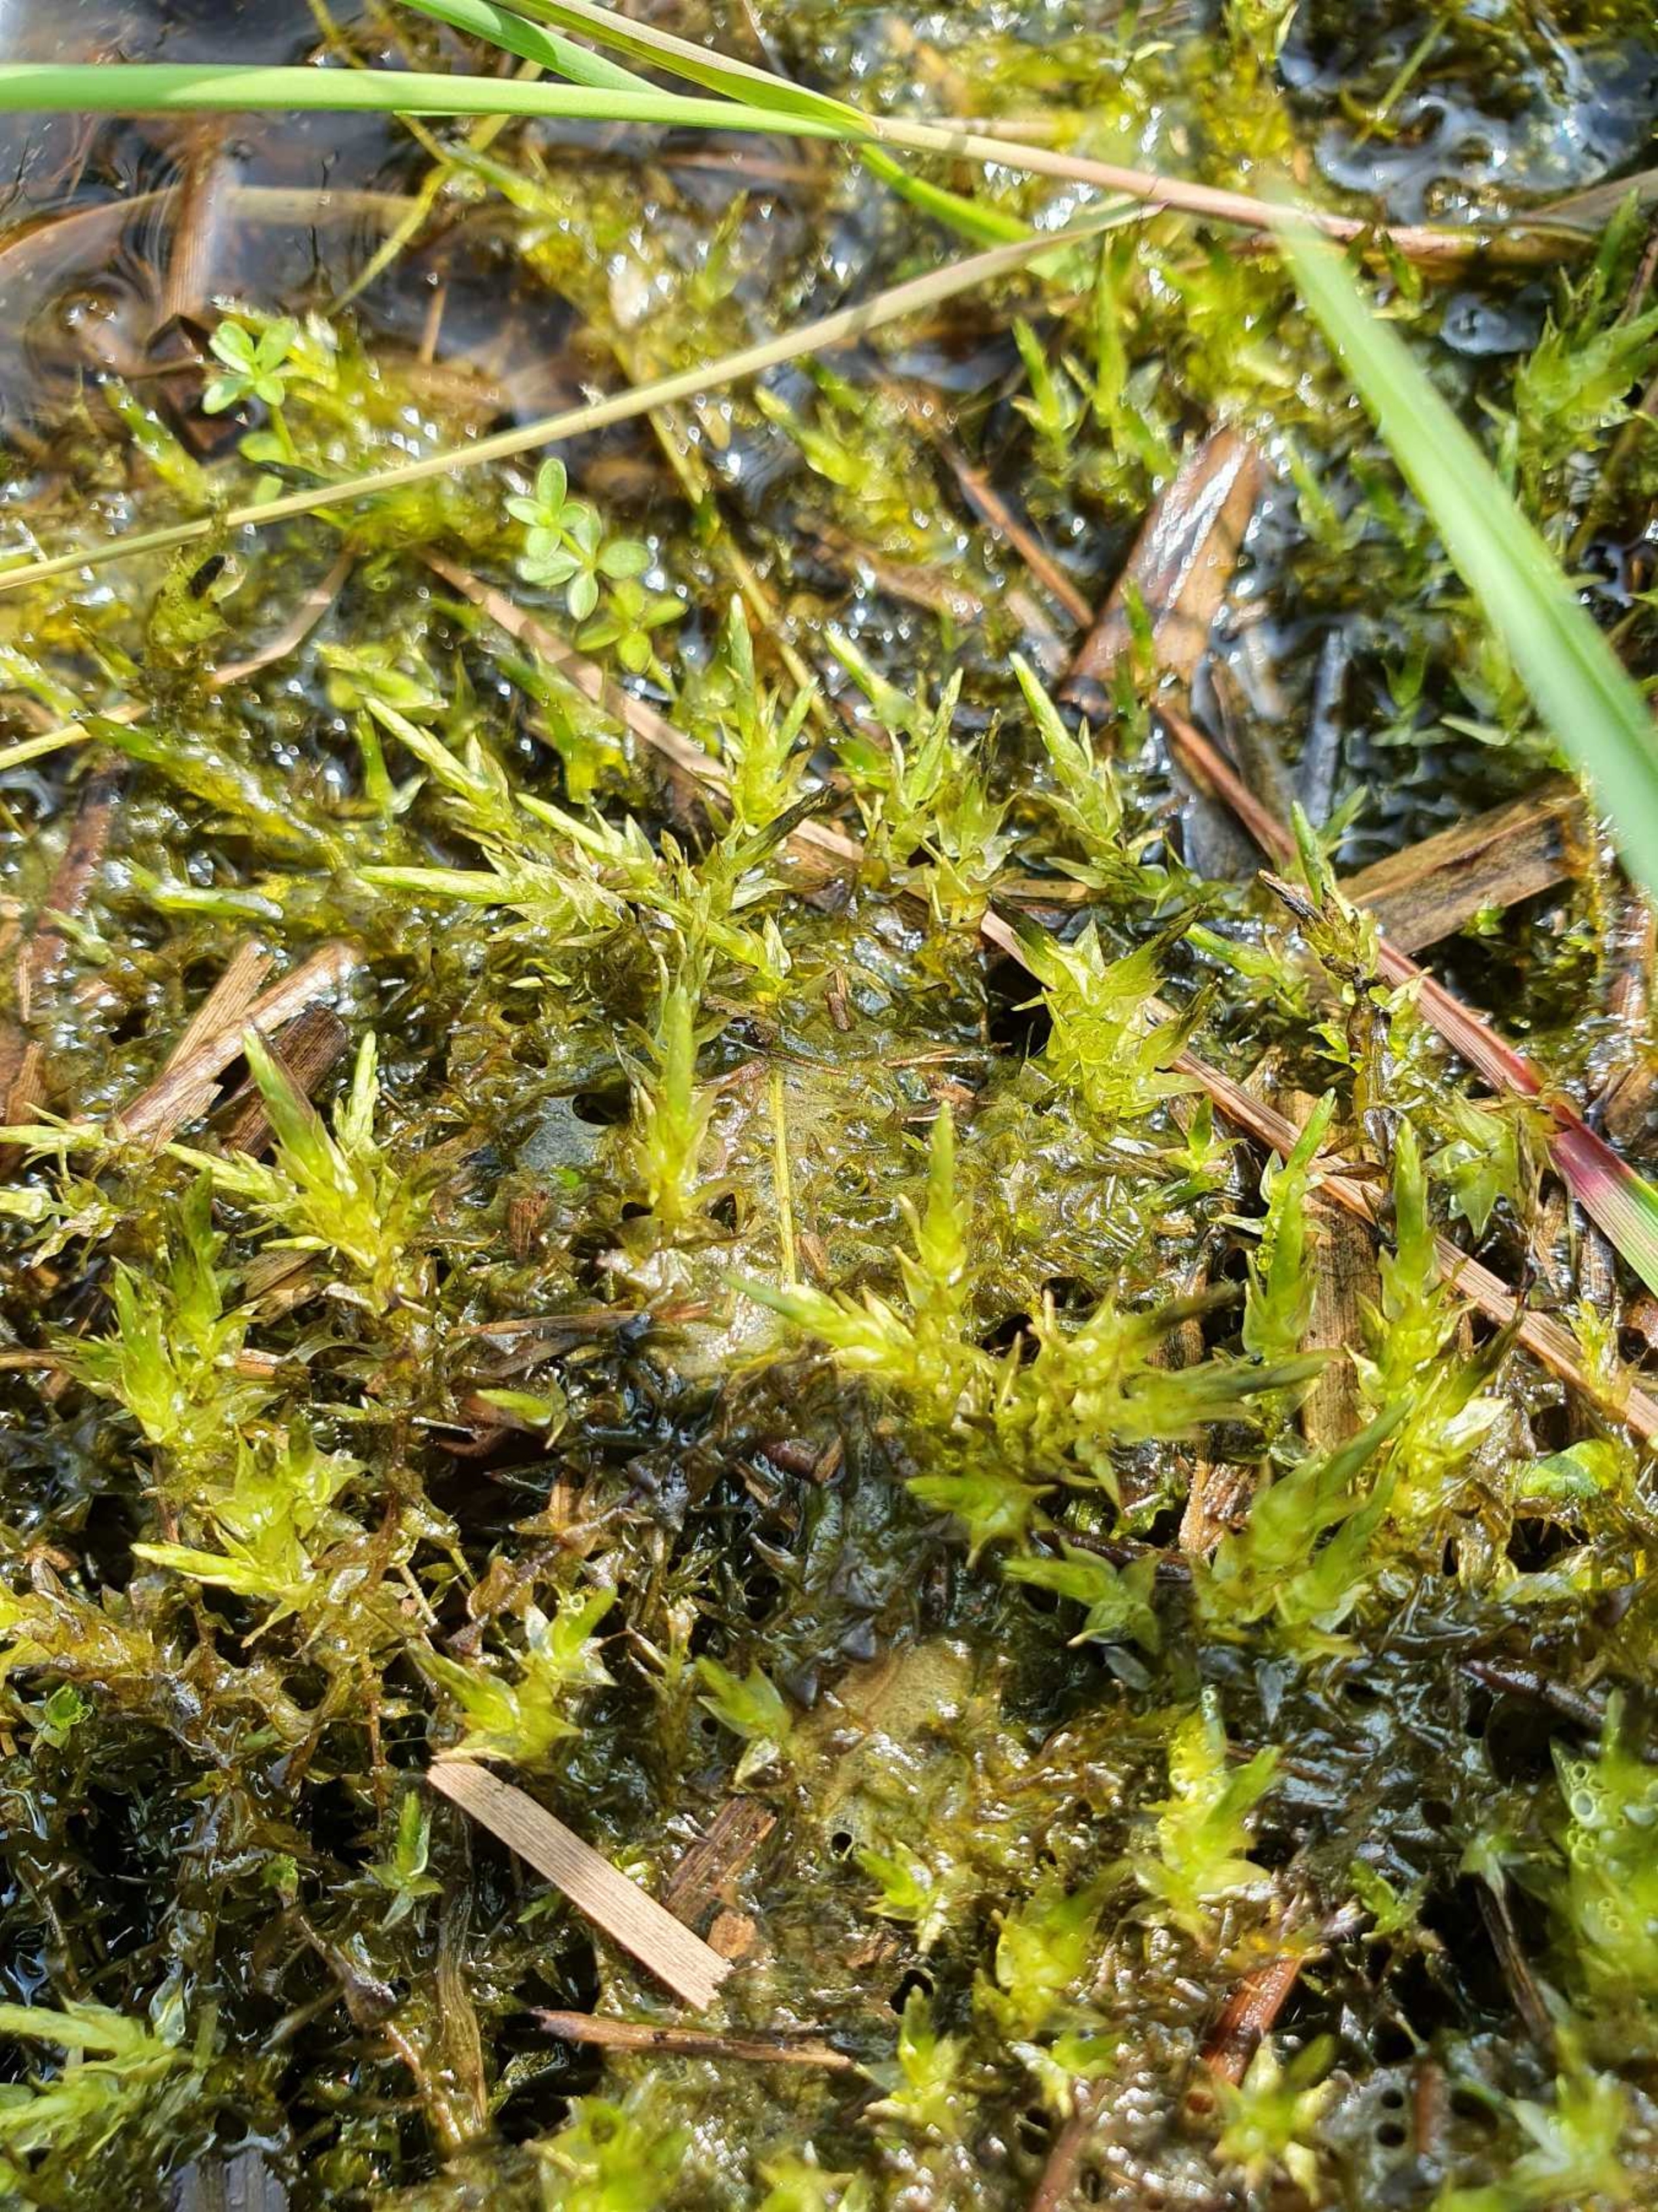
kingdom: Plantae
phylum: Bryophyta
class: Bryopsida
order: Hypnales
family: Calliergonaceae
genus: Calliergon
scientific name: Calliergon cordifolium
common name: Almindelig skebladsmos
